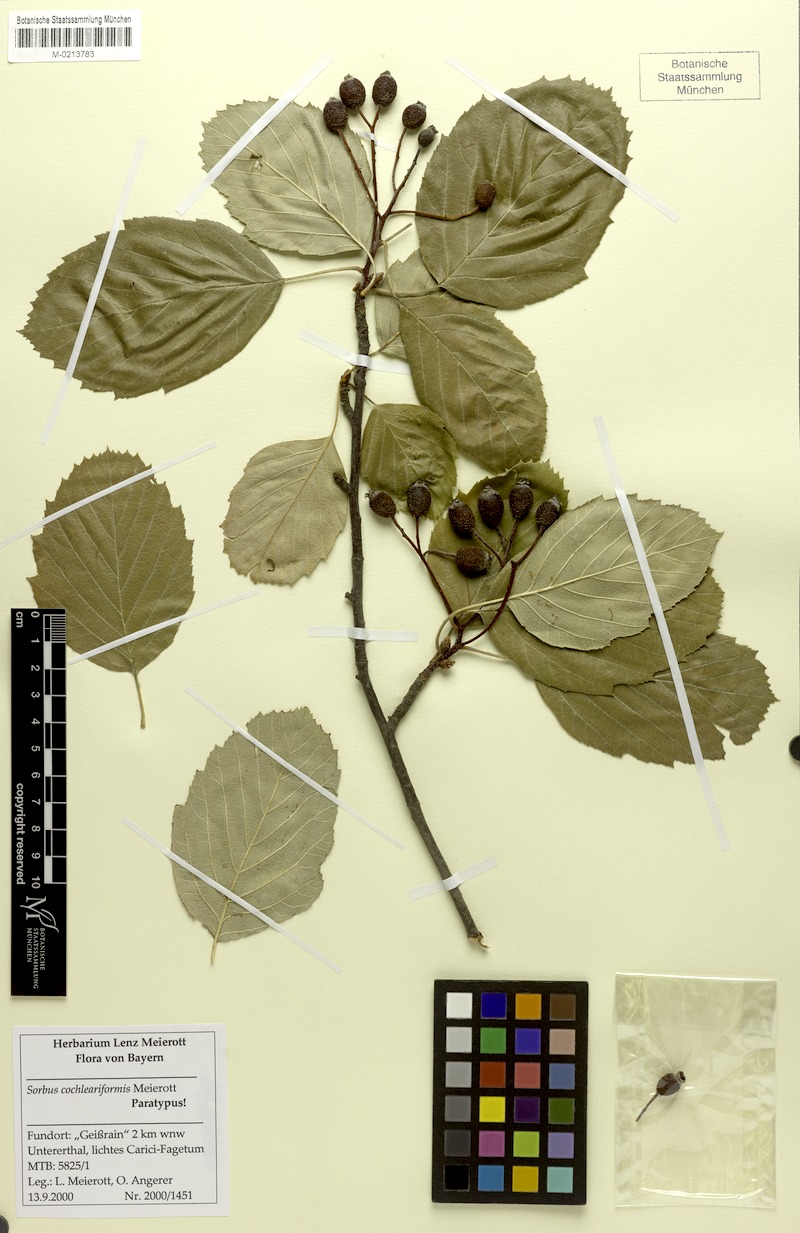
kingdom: Plantae
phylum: Tracheophyta
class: Magnoliopsida
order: Rosales
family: Rosaceae
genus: Karpatiosorbus
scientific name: Karpatiosorbus hybrida
